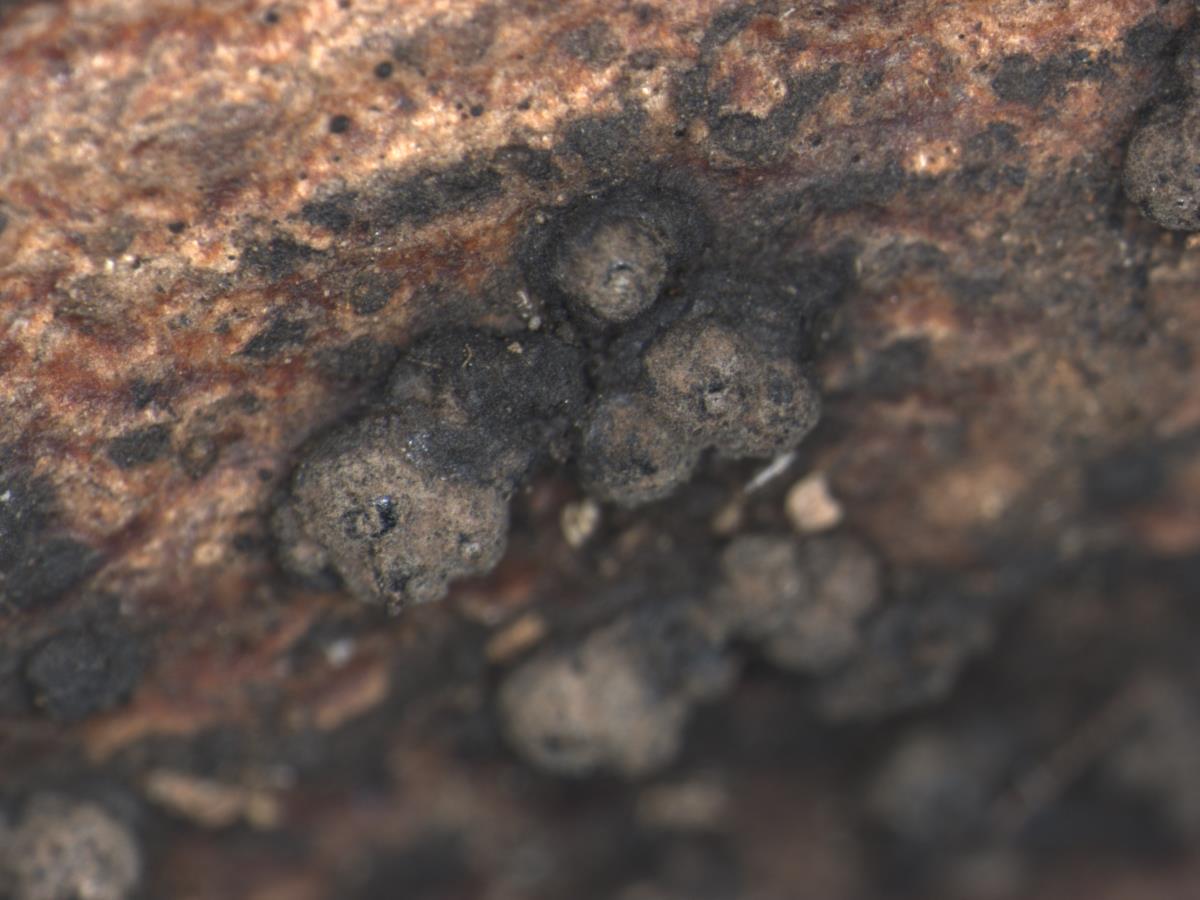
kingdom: Fungi
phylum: Ascomycota
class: Sordariomycetes
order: Xylariales
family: Hypoxylaceae
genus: Hypoxylon
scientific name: Hypoxylon
